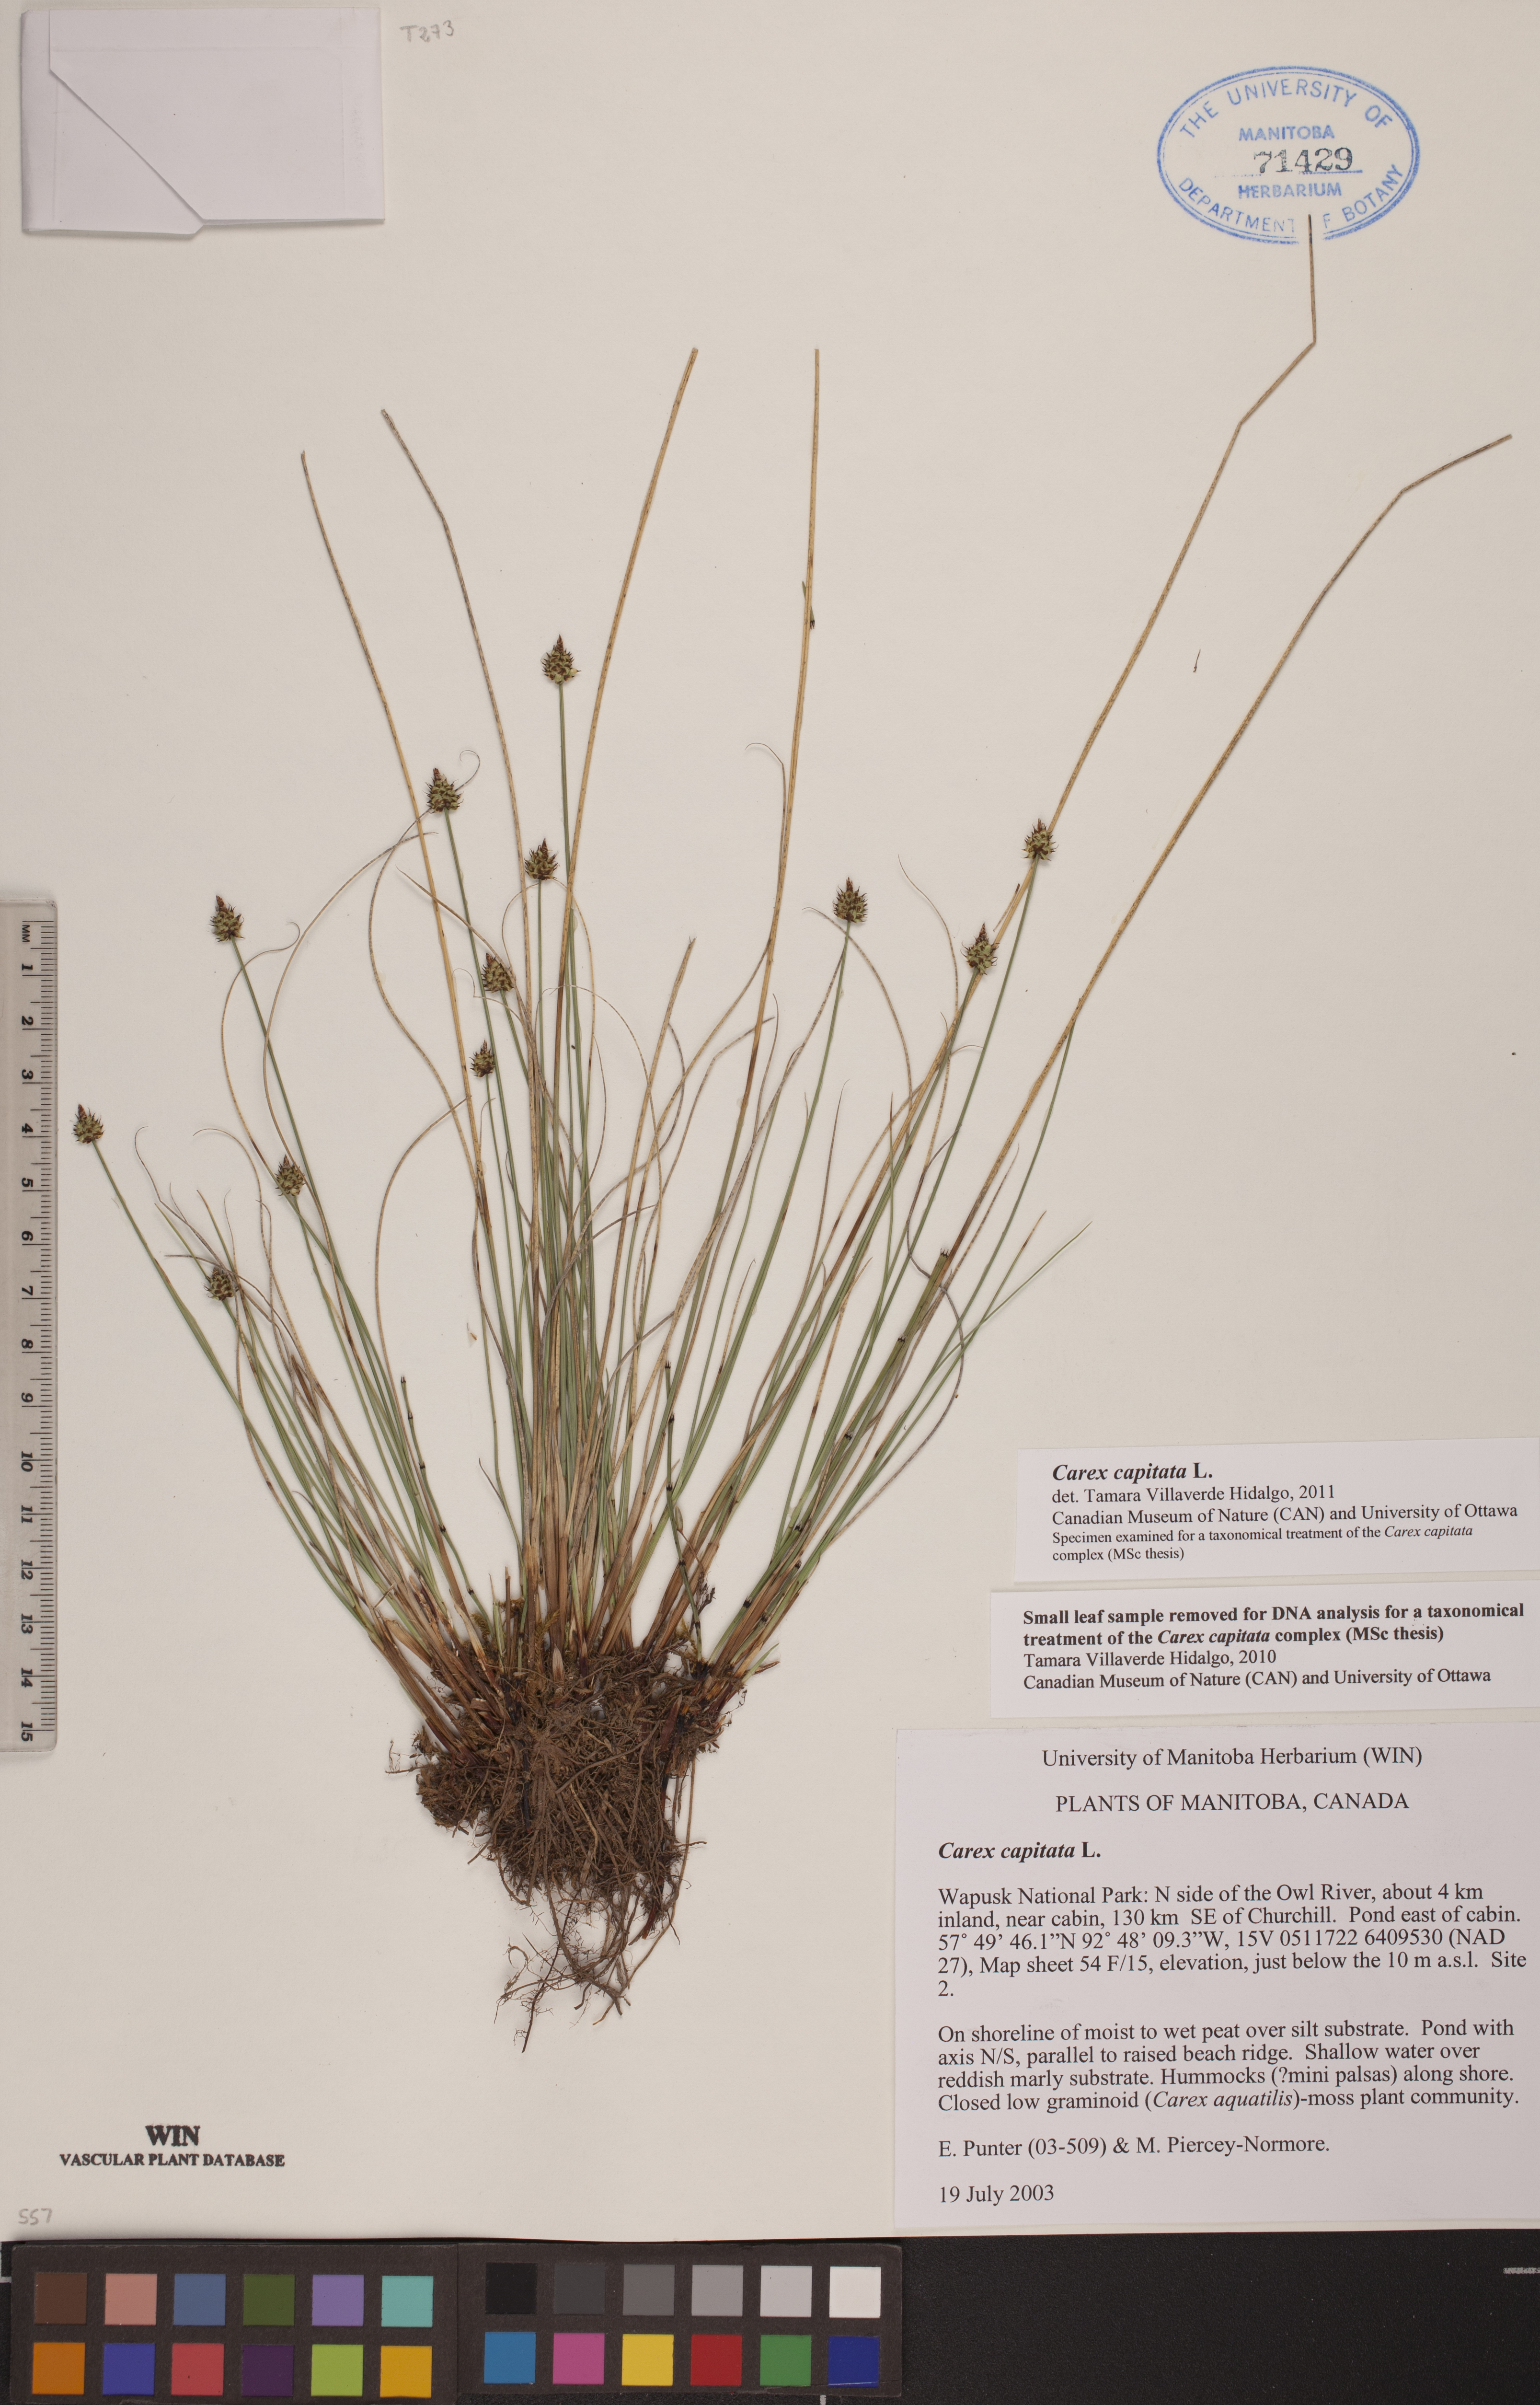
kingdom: Plantae
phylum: Tracheophyta
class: Liliopsida
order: Poales
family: Cyperaceae
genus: Carex
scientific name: Carex capitata
